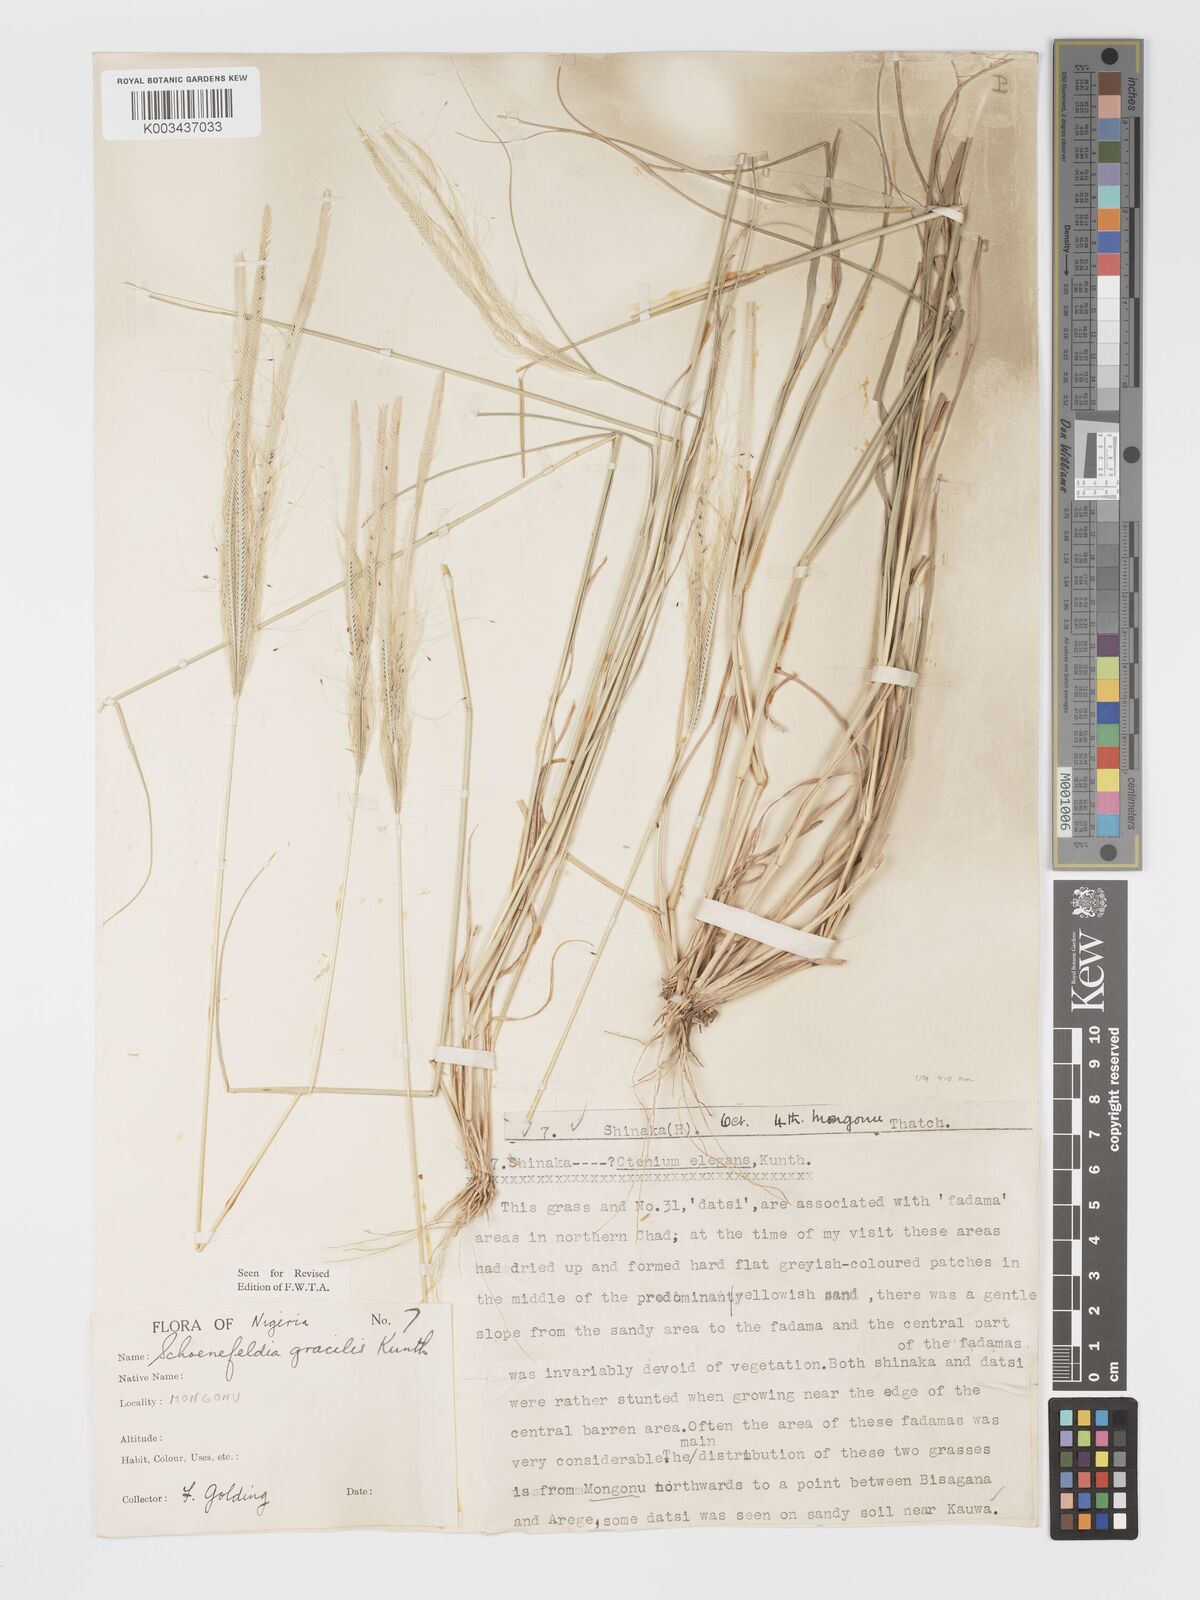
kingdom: Plantae
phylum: Tracheophyta
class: Liliopsida
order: Poales
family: Poaceae
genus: Schoenefeldia
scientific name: Schoenefeldia gracilis
